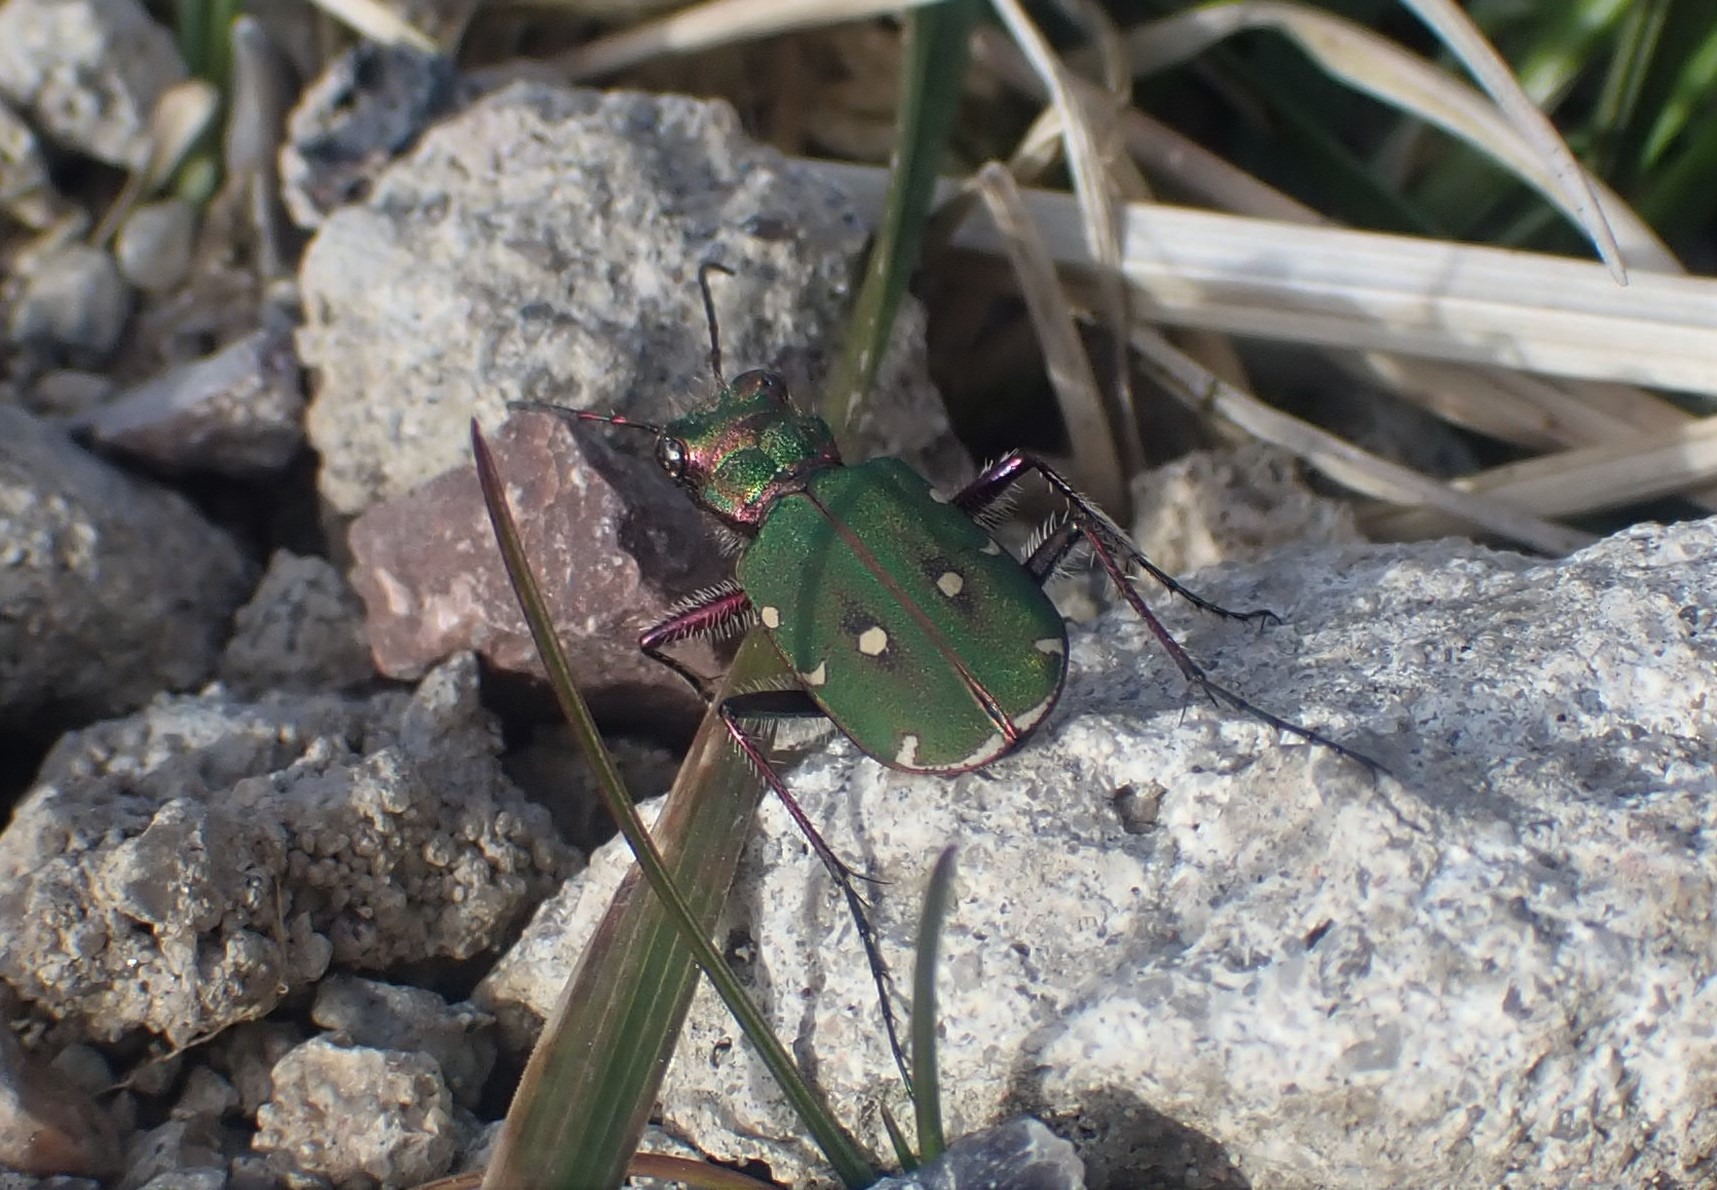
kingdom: Animalia
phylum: Arthropoda
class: Insecta
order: Coleoptera
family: Carabidae
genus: Cicindela
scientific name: Cicindela campestris
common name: Grøn sandspringer
